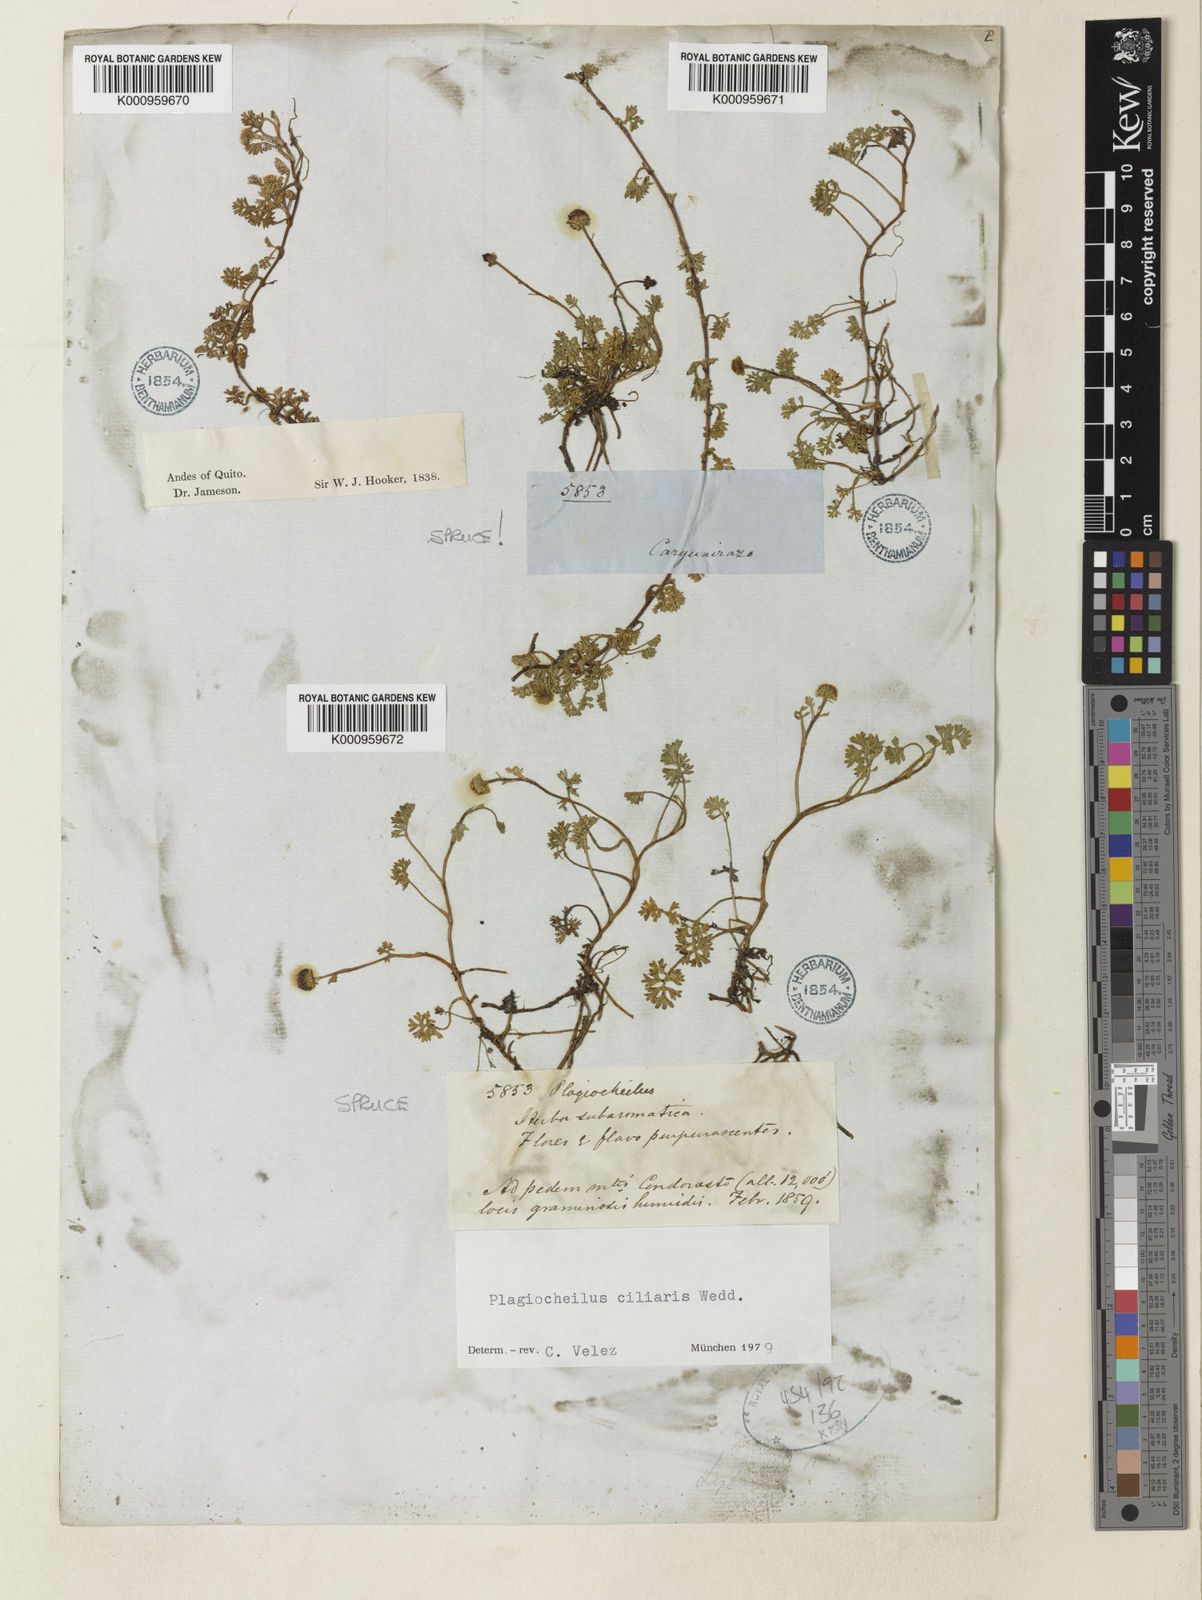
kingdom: Plantae
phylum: Tracheophyta
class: Magnoliopsida
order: Asterales
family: Asteraceae
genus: Plagiocheilus
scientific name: Plagiocheilus
